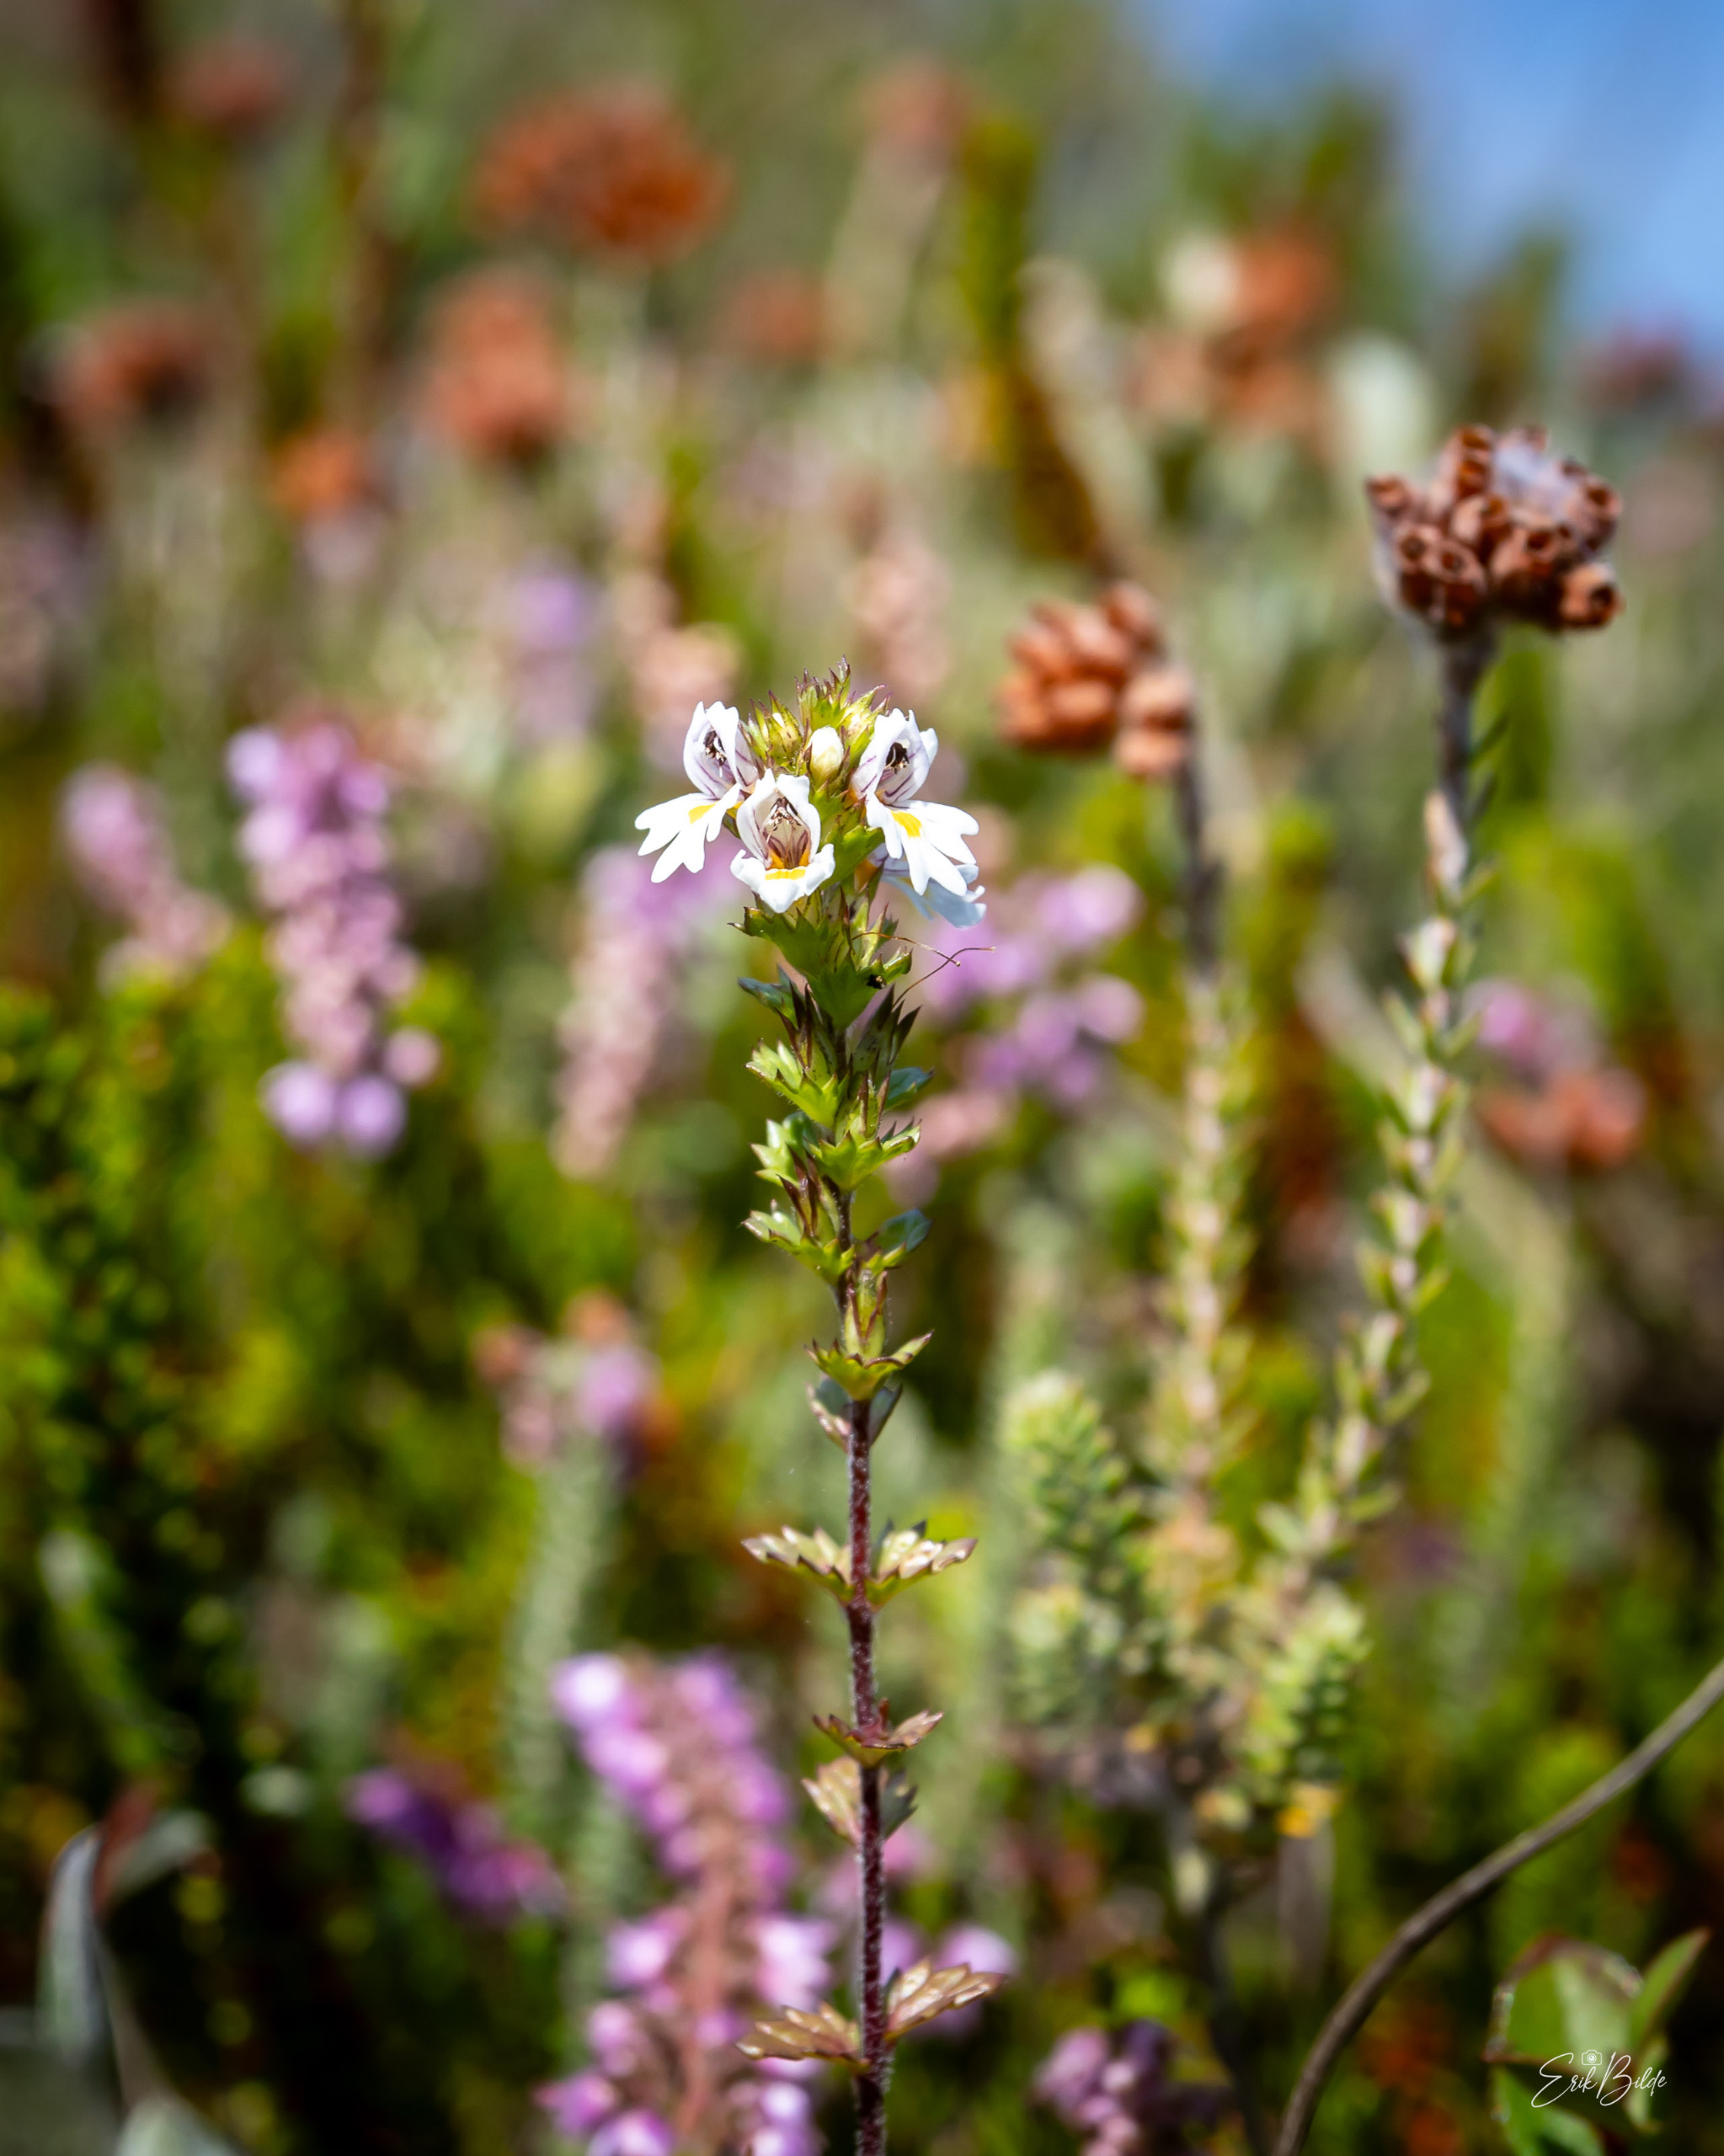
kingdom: Plantae
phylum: Tracheophyta
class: Magnoliopsida
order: Lamiales
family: Orobanchaceae
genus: Euphrasia
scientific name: Euphrasia
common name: Lyng-øjentrøst × spids øjentrøst
